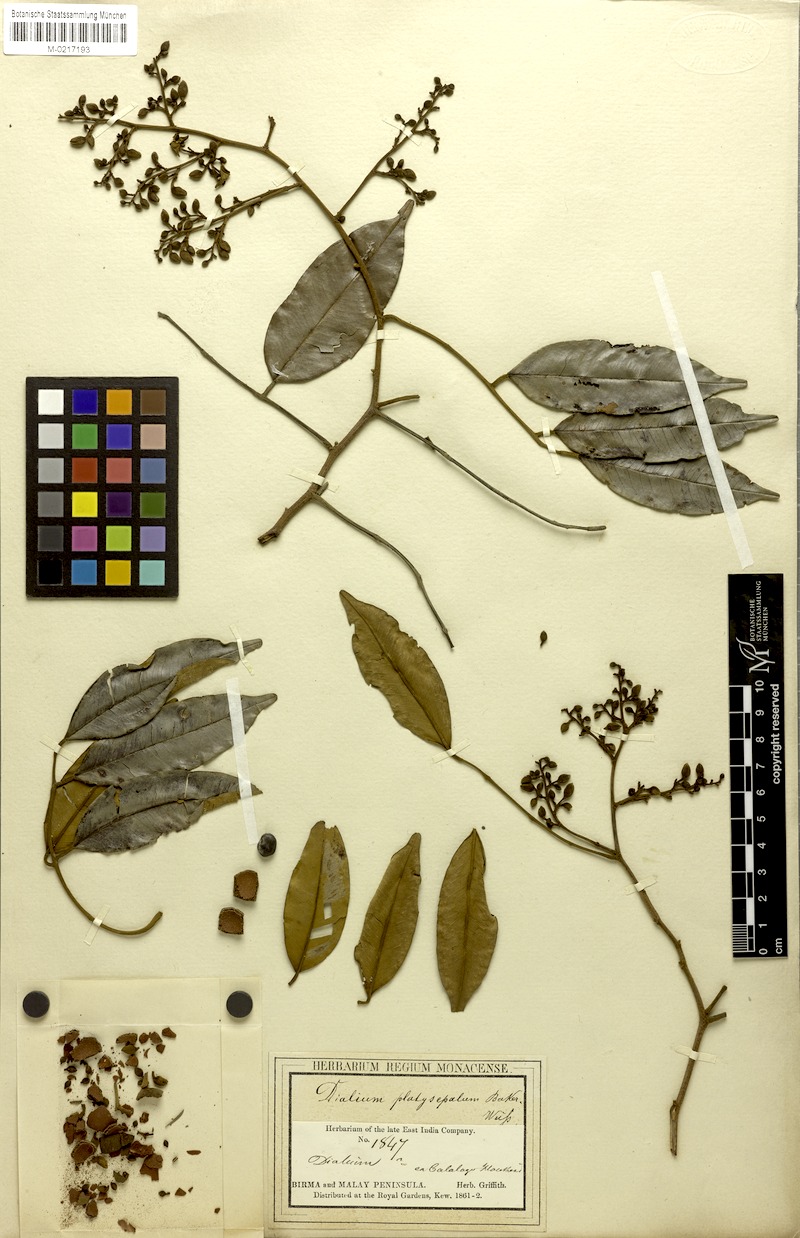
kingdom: Plantae
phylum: Tracheophyta
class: Magnoliopsida
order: Fabales
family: Fabaceae
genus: Dialium
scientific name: Dialium platysepalum
